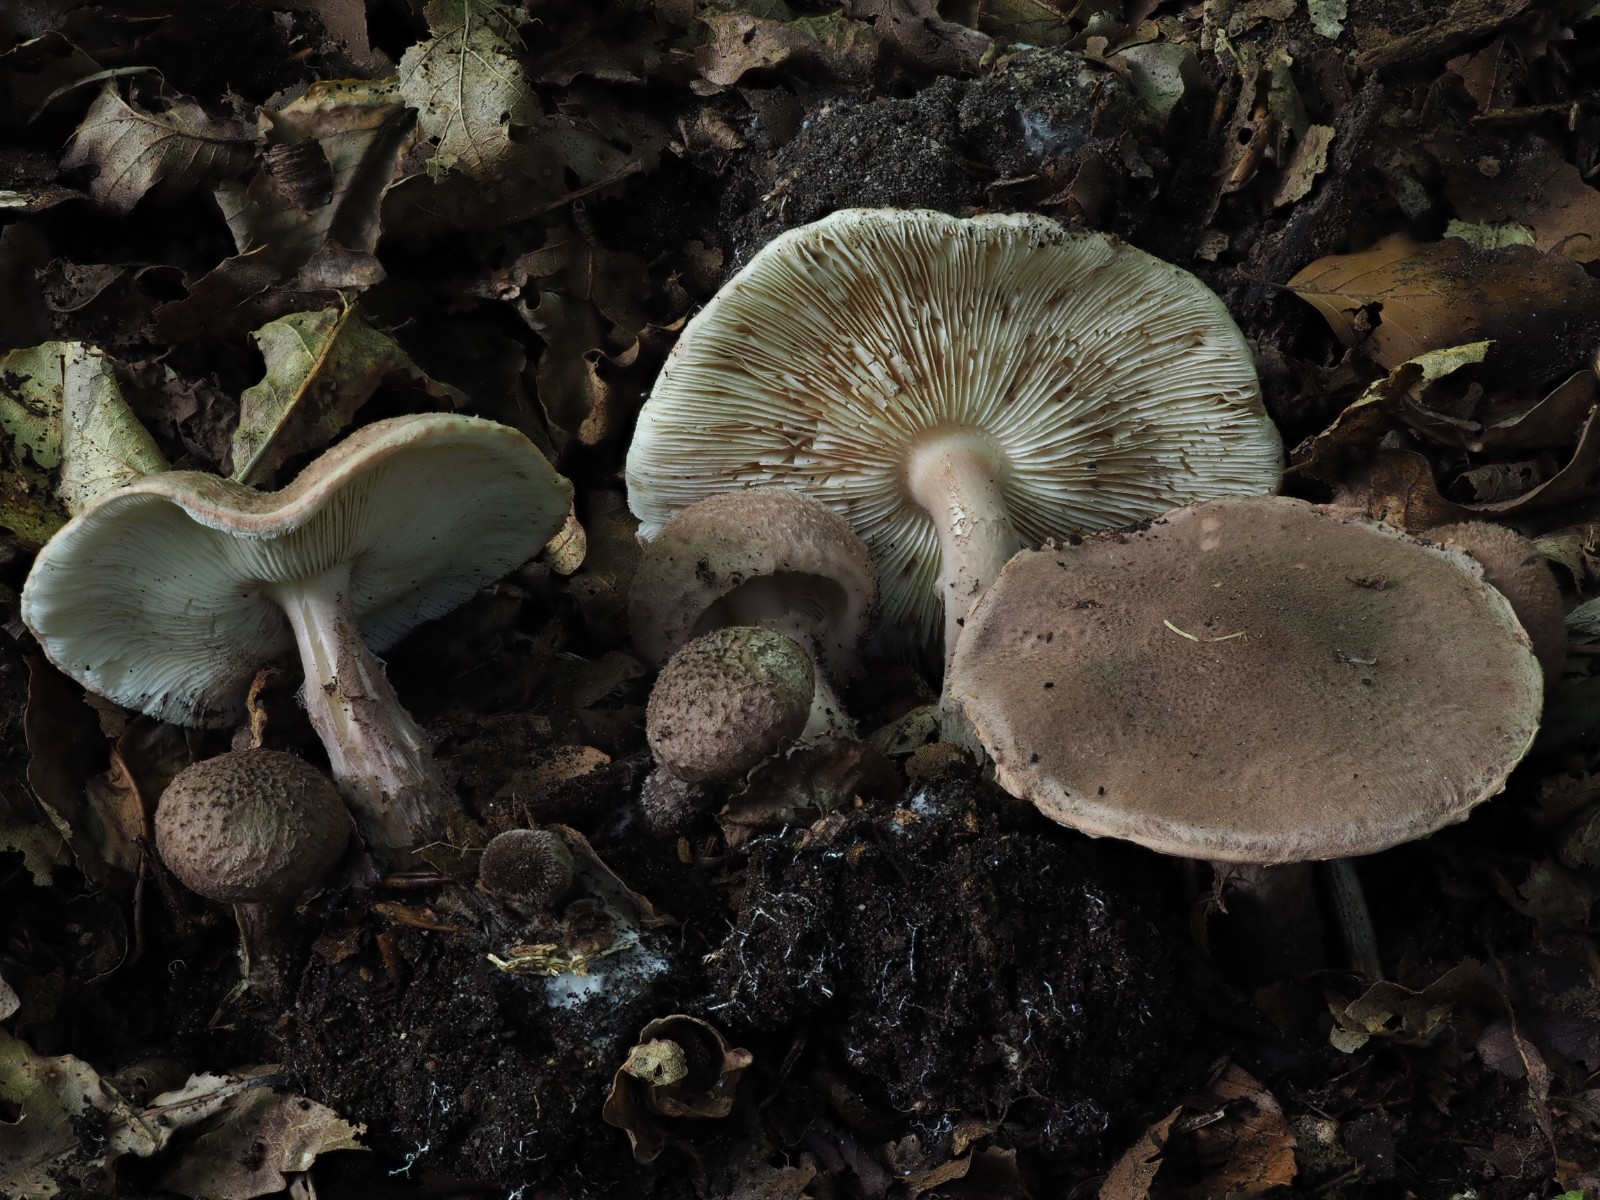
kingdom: Fungi
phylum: Basidiomycota
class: Agaricomycetes
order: Agaricales
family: Agaricaceae
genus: Lepiota
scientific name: Lepiota fuscovinacea
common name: vinrød parasolhat
